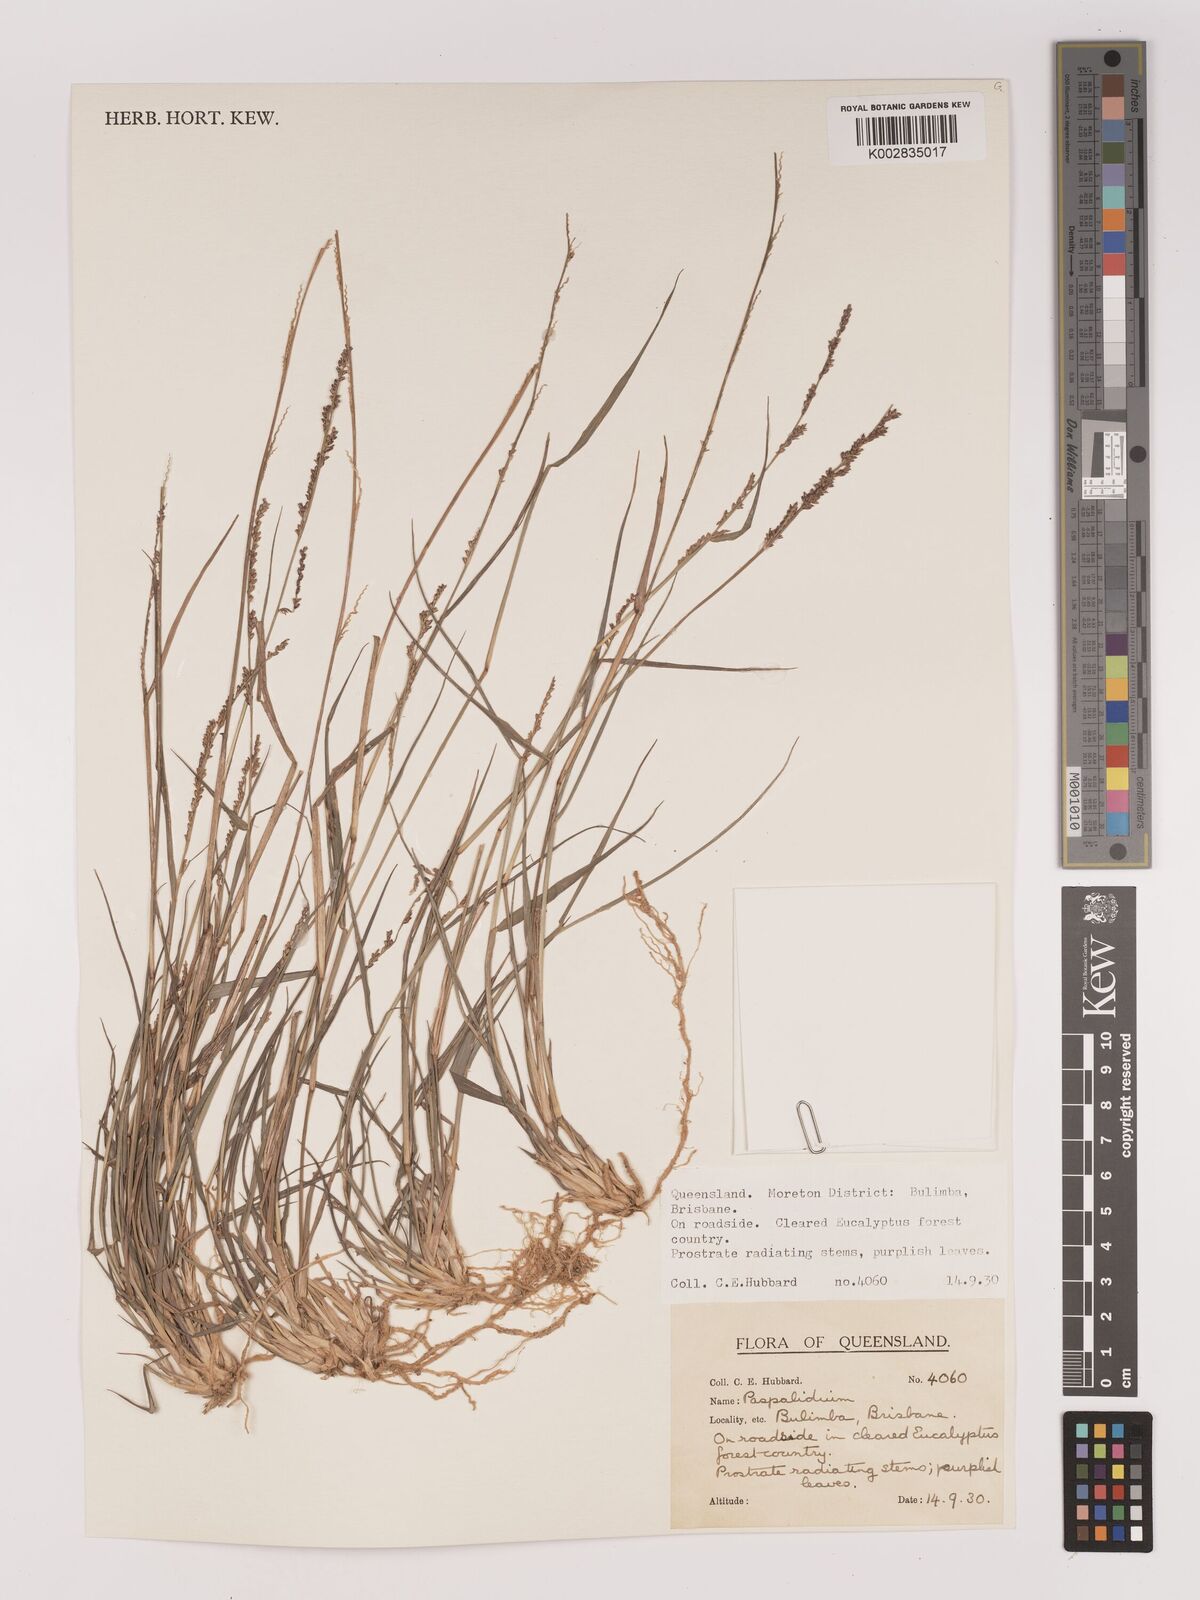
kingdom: Plantae
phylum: Tracheophyta
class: Liliopsida
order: Poales
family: Poaceae
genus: Setaria
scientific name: Setaria
